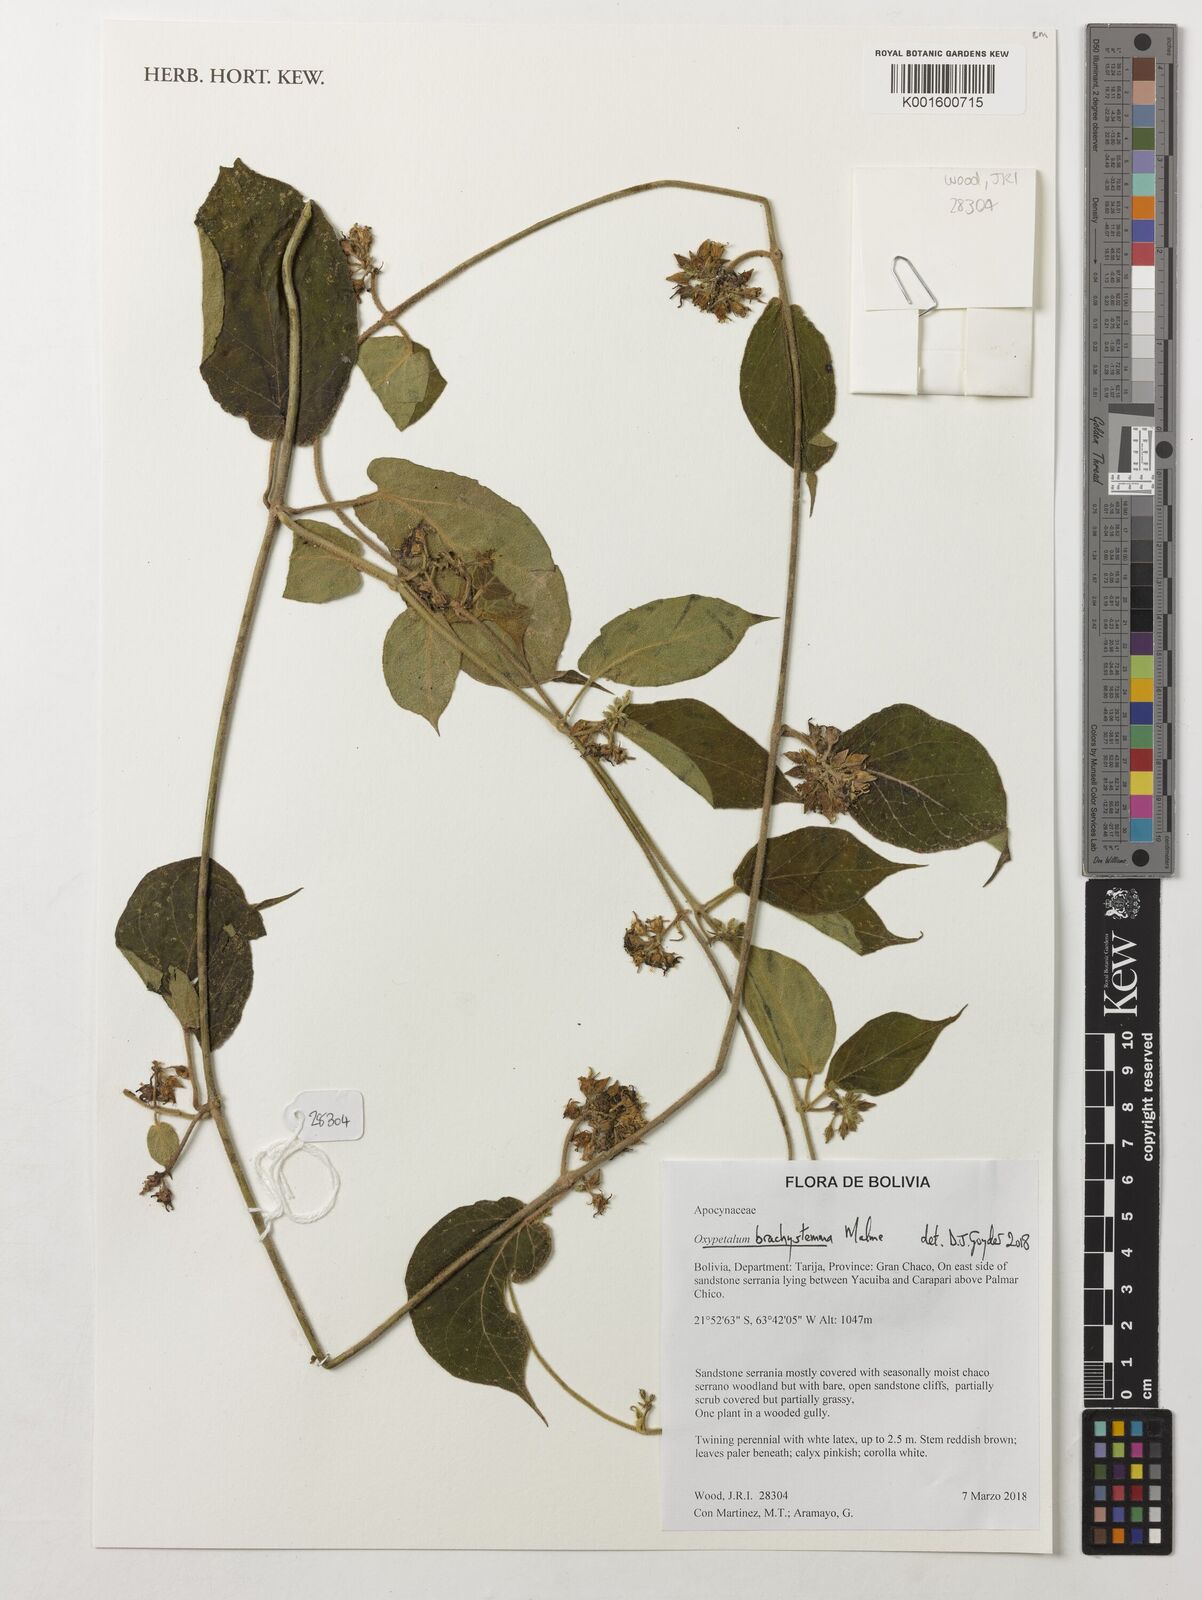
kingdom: Plantae
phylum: Tracheophyta
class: Magnoliopsida
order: Gentianales
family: Apocynaceae
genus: Oxypetalum
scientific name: Oxypetalum brachystemma
